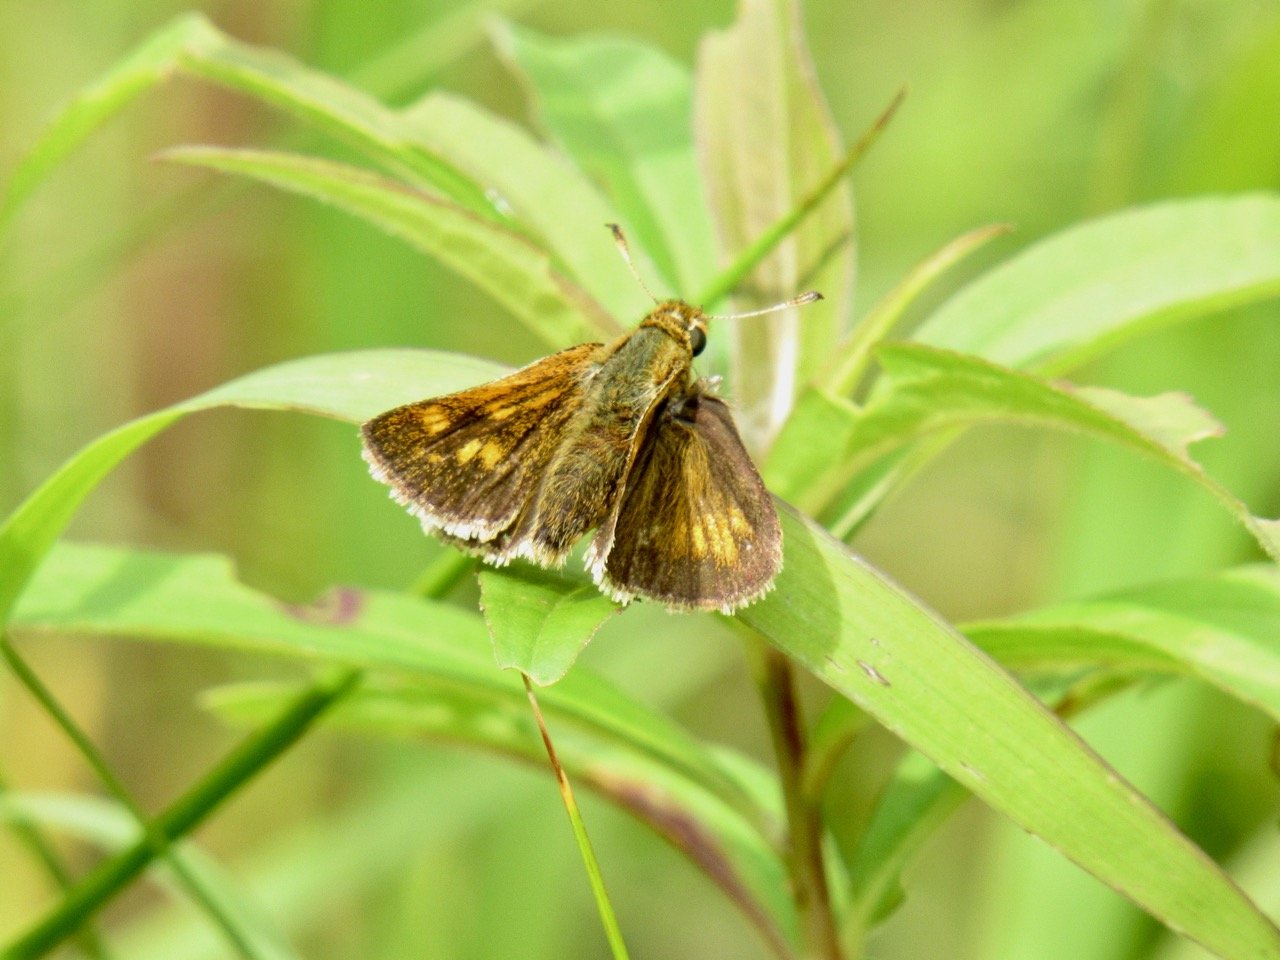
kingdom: Animalia
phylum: Arthropoda
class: Insecta
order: Lepidoptera
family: Hesperiidae
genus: Polites
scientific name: Polites coras
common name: Peck's Skipper
